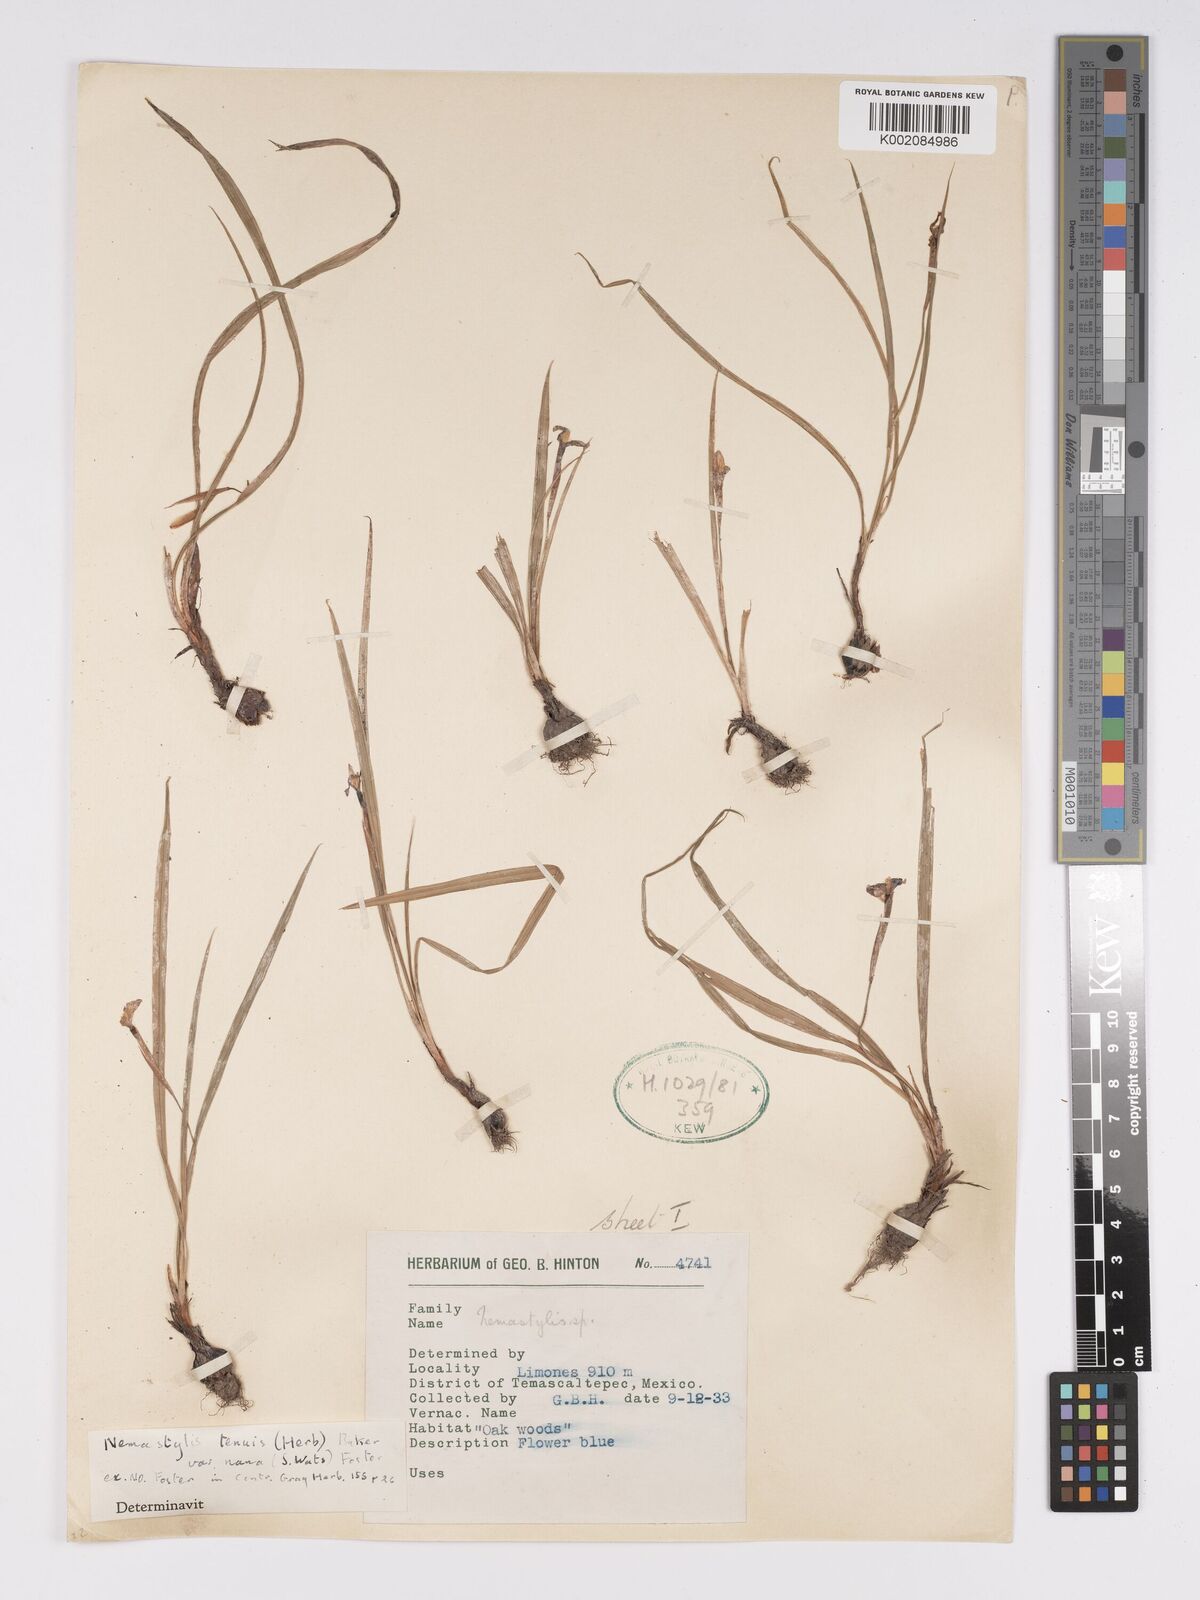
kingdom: Plantae
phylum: Tracheophyta
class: Liliopsida
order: Asparagales
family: Iridaceae
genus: Nemastylis
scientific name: Nemastylis tenuis
